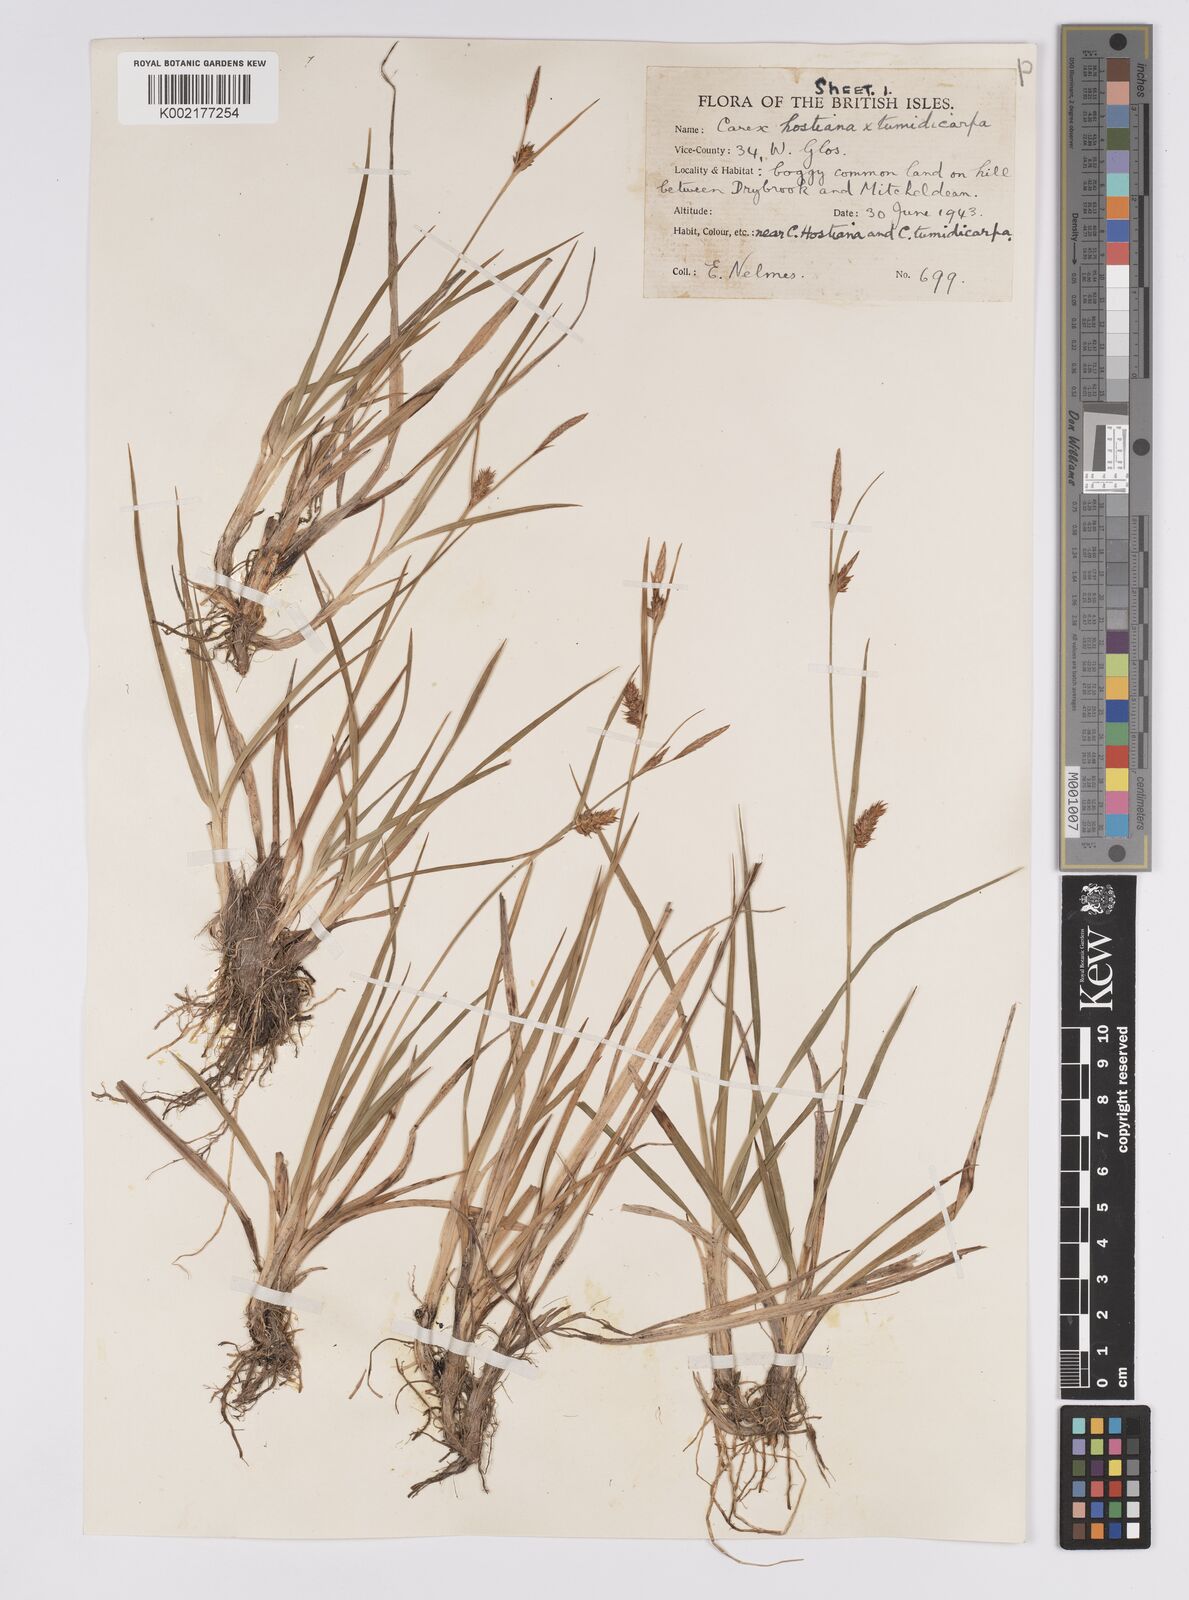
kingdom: Plantae
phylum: Tracheophyta
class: Liliopsida
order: Poales
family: Cyperaceae
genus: Carex
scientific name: Carex hostiana
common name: Tawny sedge
